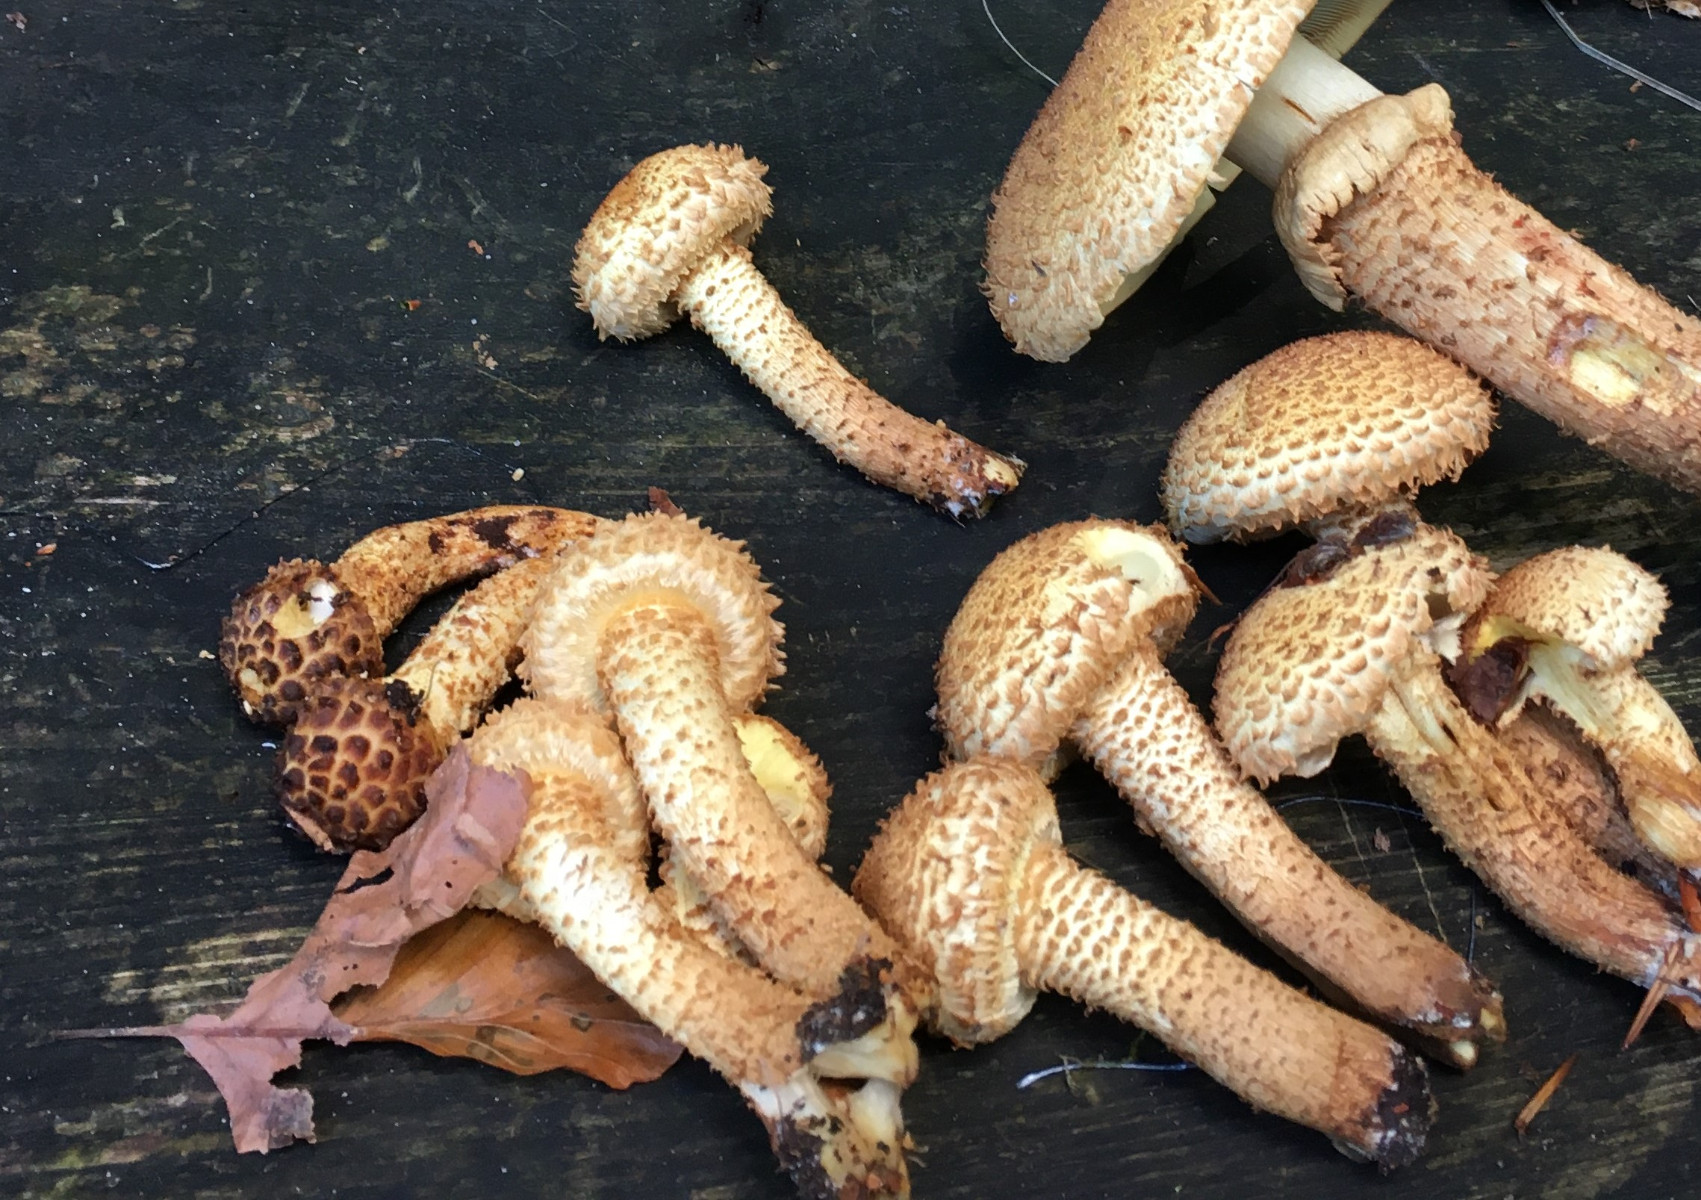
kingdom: Fungi
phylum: Basidiomycota
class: Agaricomycetes
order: Agaricales
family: Strophariaceae
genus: Pholiota
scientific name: Pholiota squarrosa
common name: krumskællet skælhat
